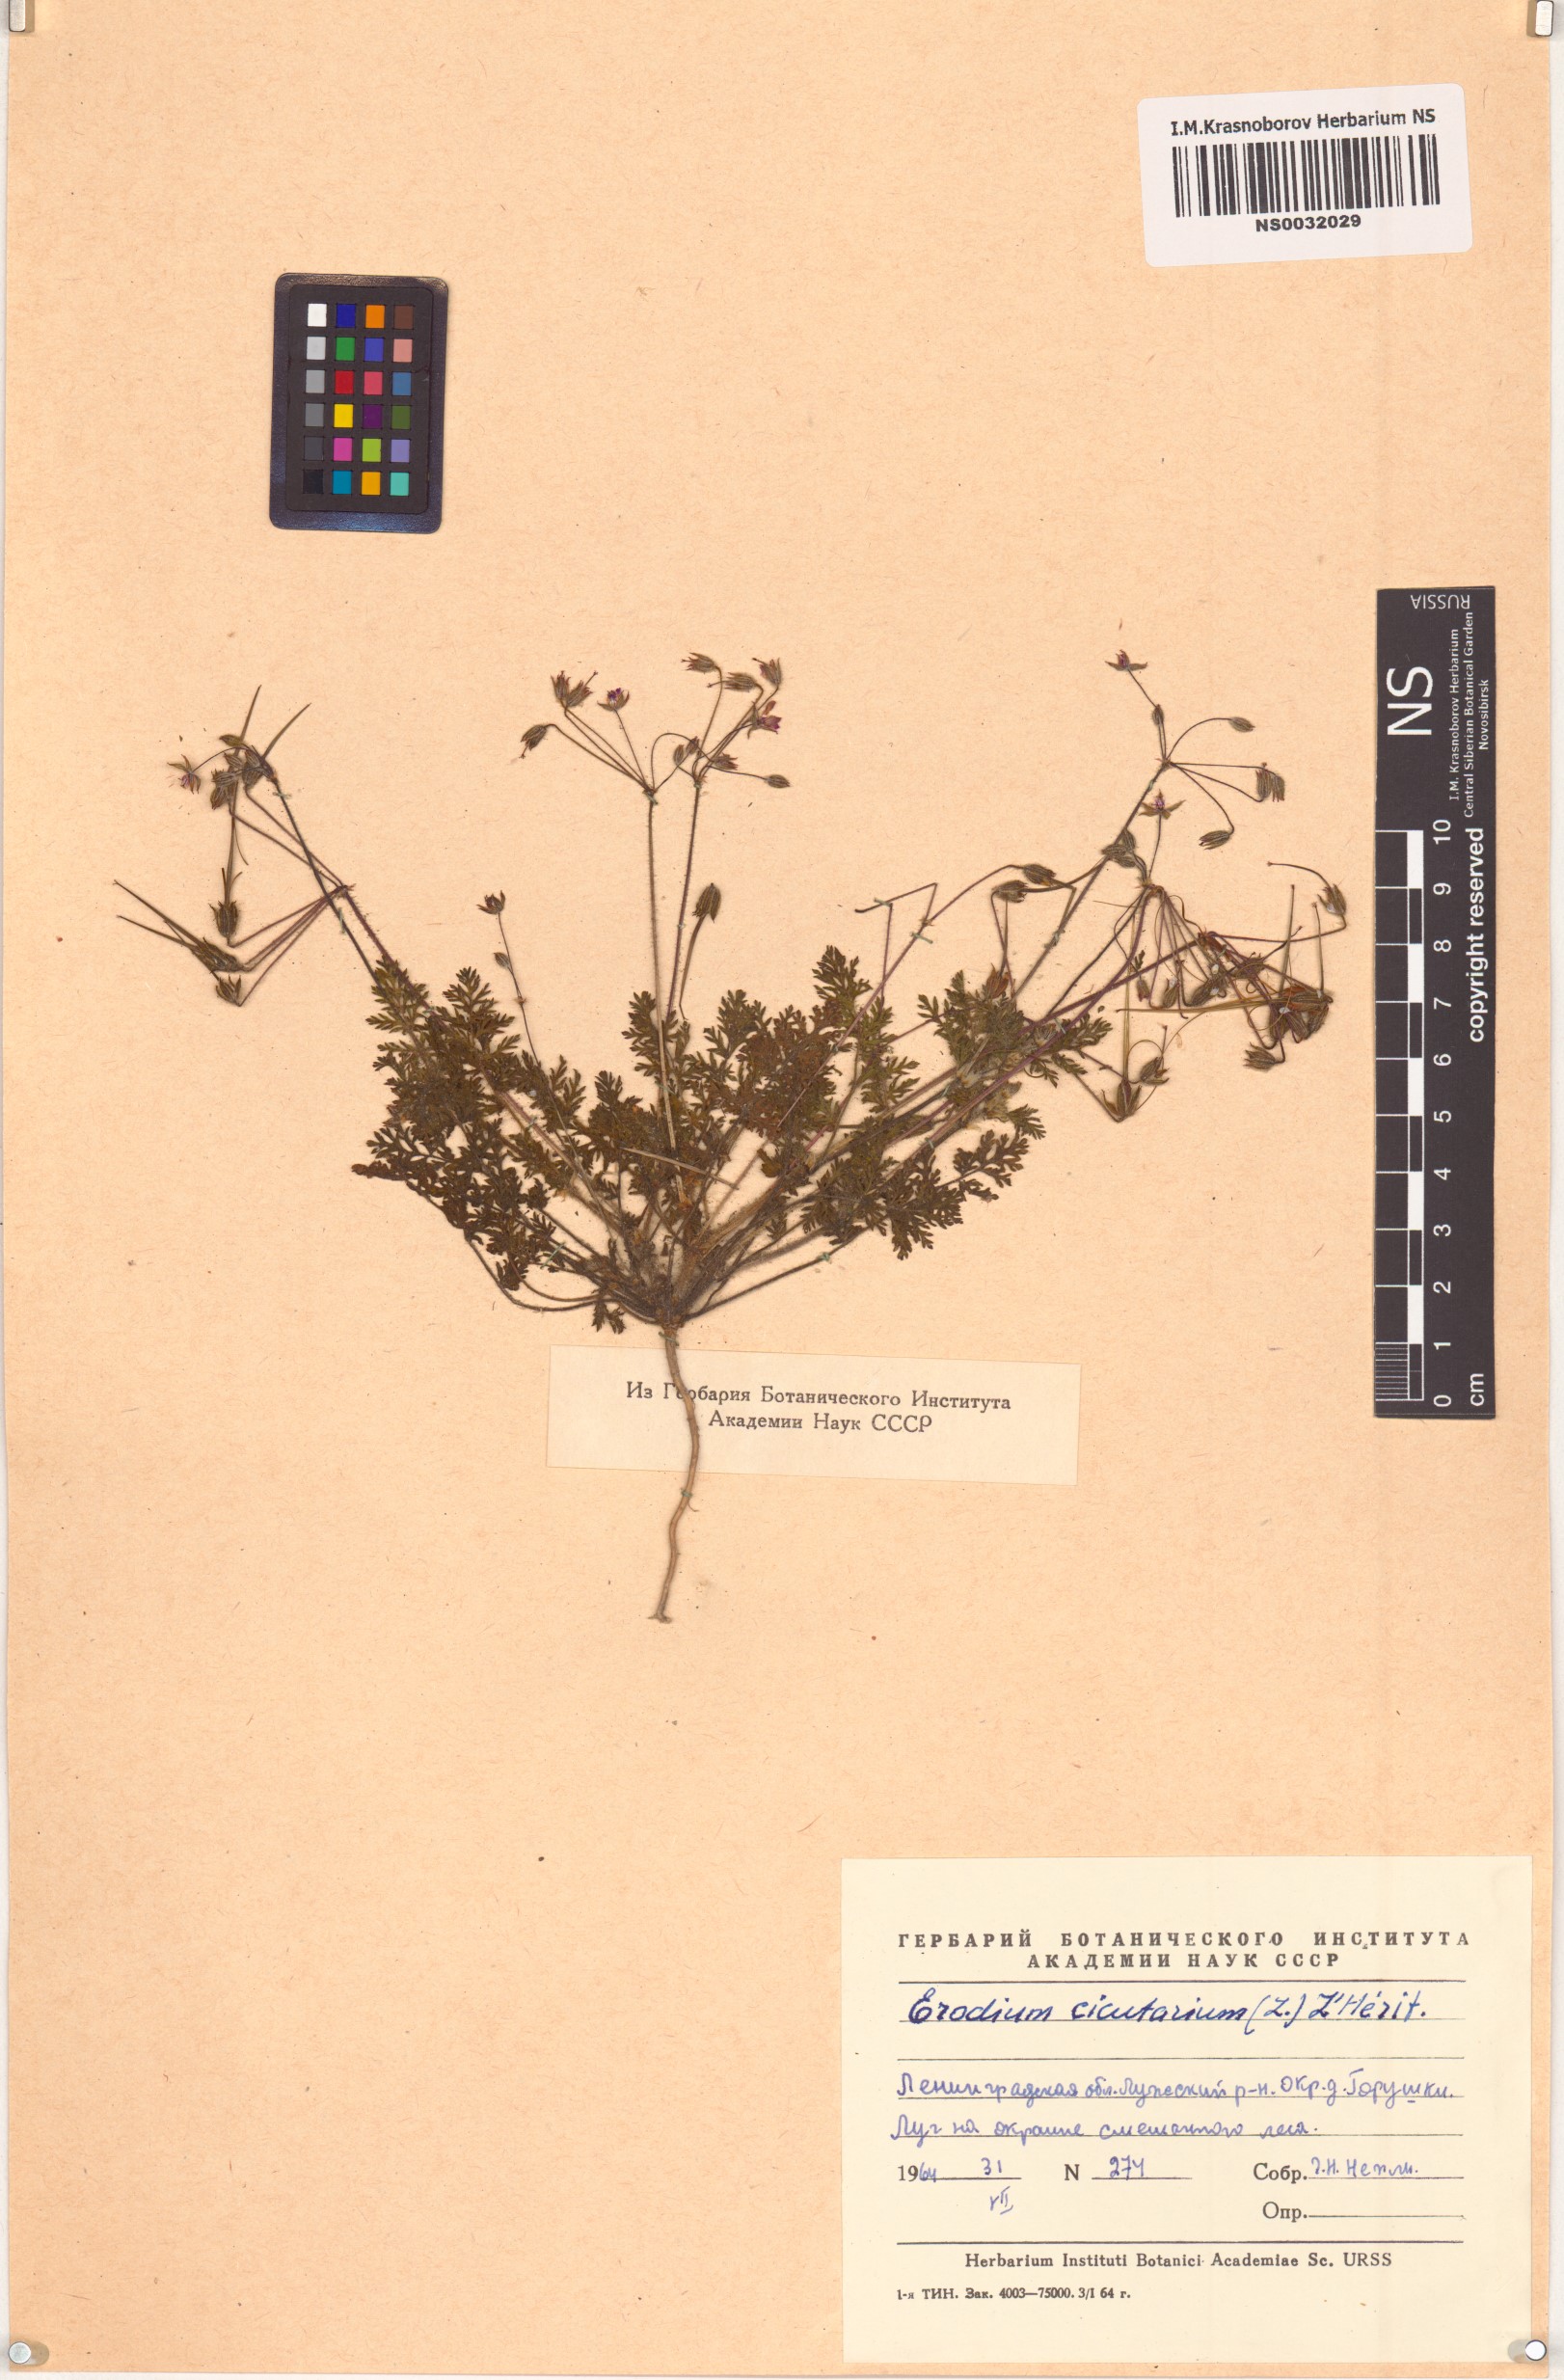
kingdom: Plantae
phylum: Tracheophyta
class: Magnoliopsida
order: Geraniales
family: Geraniaceae
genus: Erodium
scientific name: Erodium cicutarium
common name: Common stork's-bill
